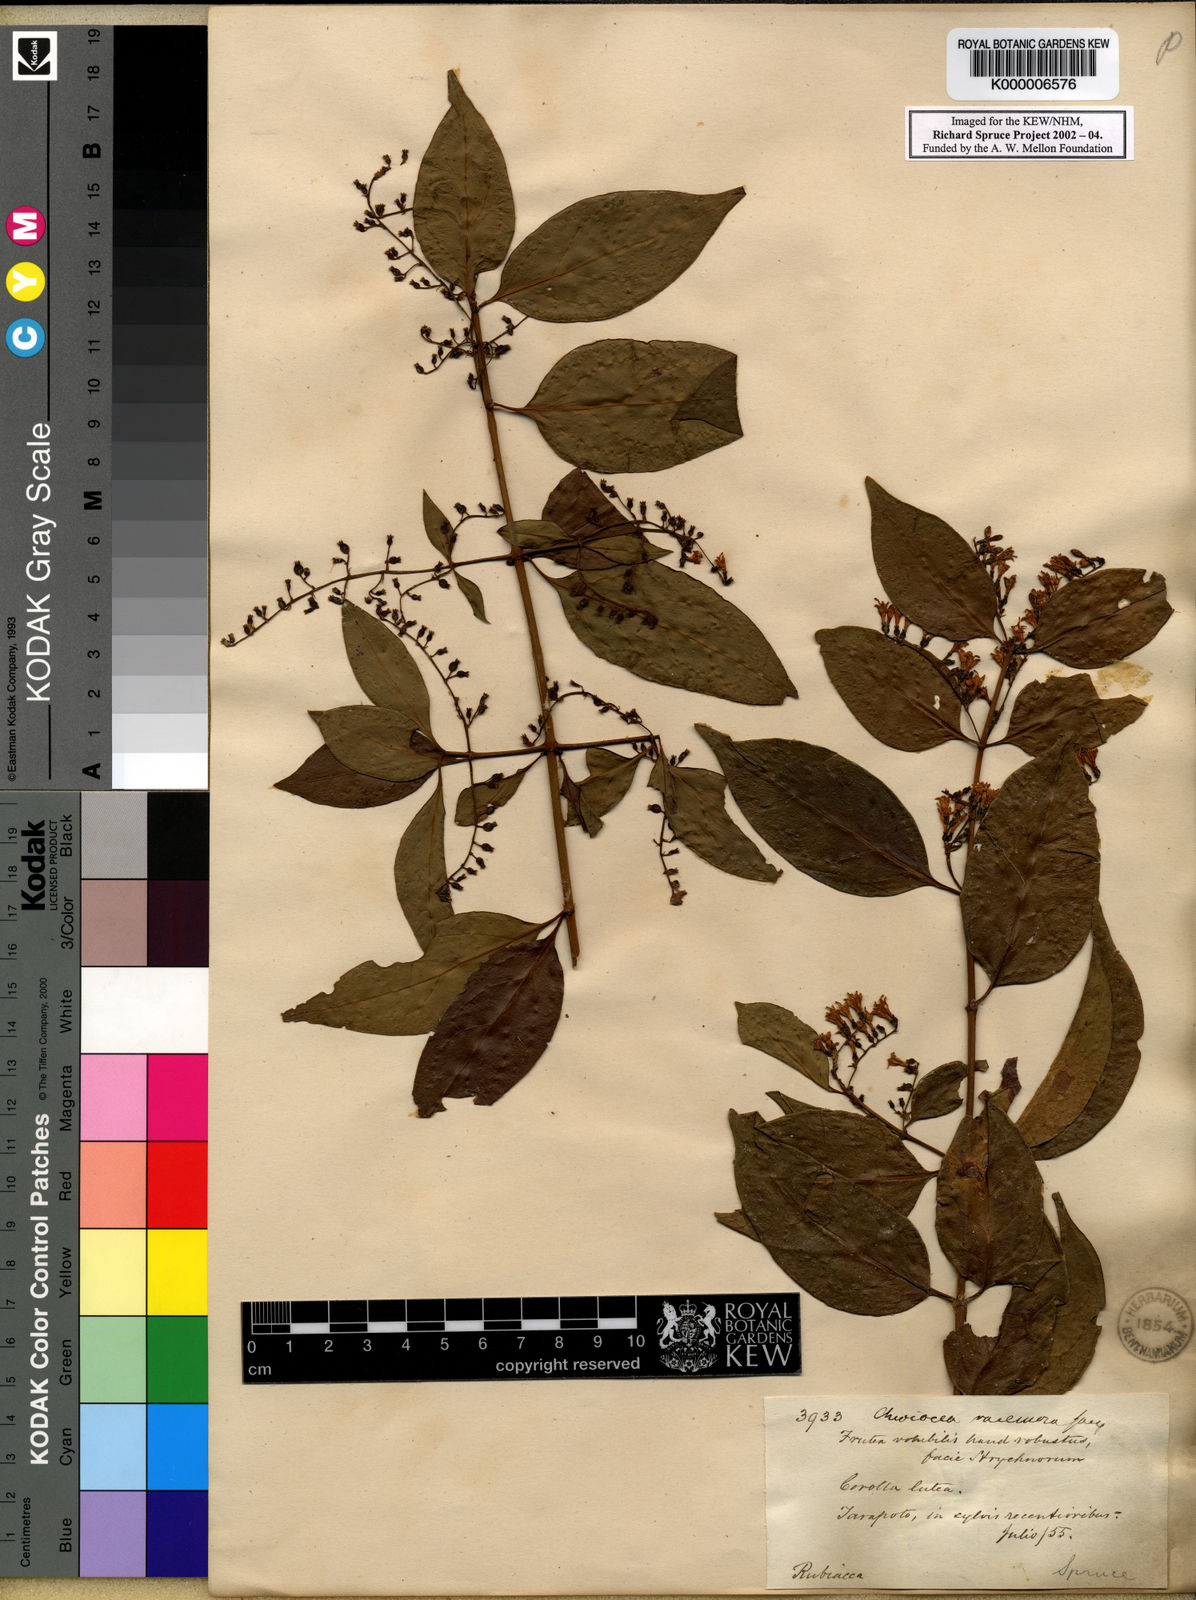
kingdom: Plantae
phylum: Tracheophyta
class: Magnoliopsida
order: Gentianales
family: Rubiaceae
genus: Chiococca
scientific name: Chiococca alba
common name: Snowberry
